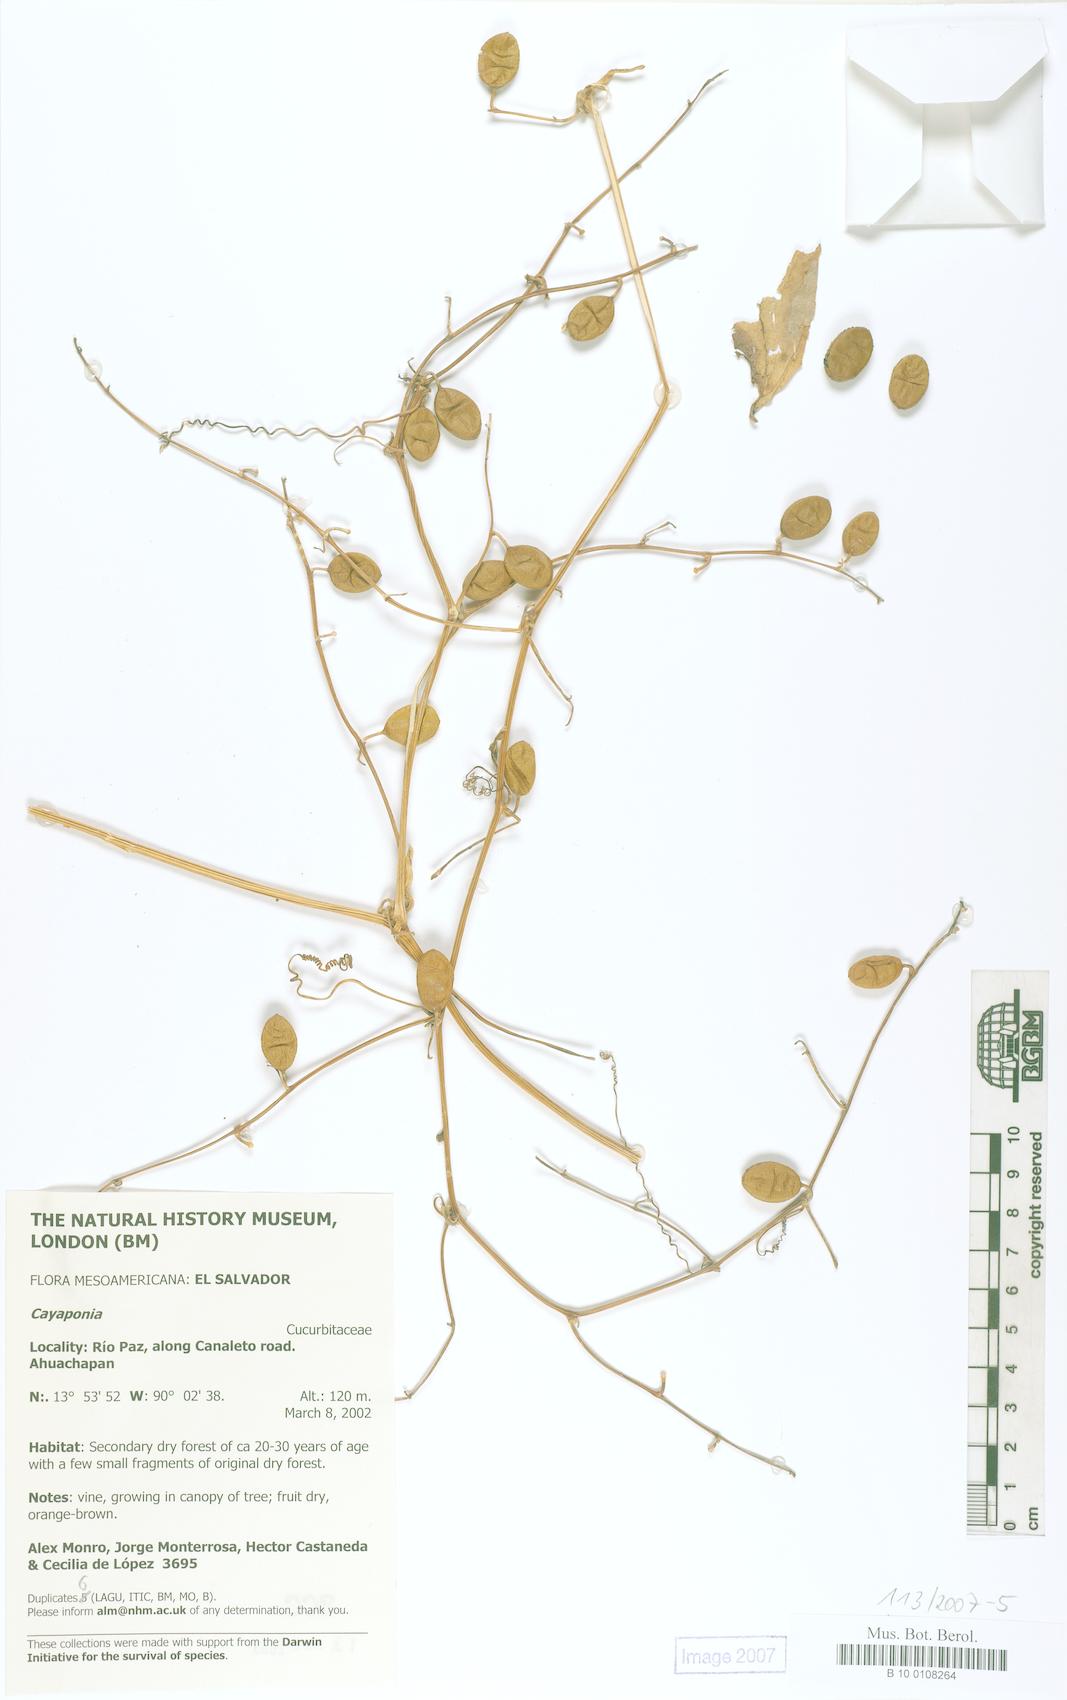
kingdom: Plantae
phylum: Tracheophyta
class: Magnoliopsida
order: Cucurbitales
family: Cucurbitaceae
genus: Cayaponia
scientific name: Cayaponia racemosa
